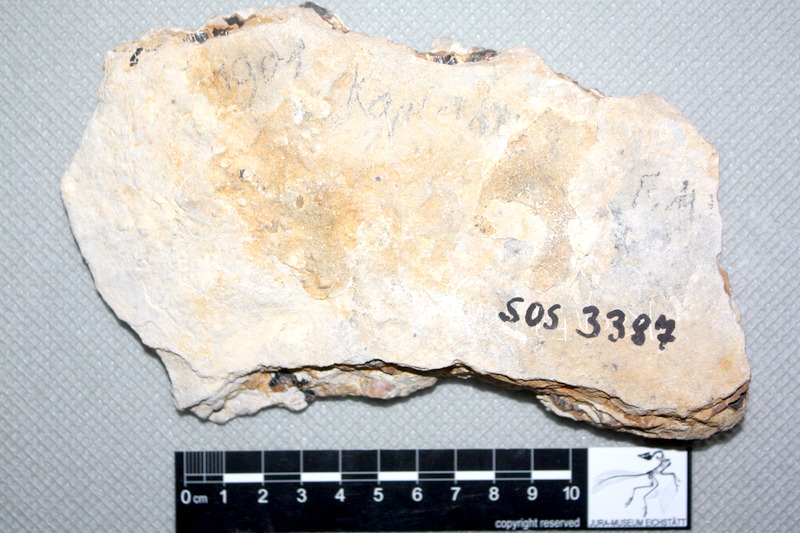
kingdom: Animalia
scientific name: Animalia
